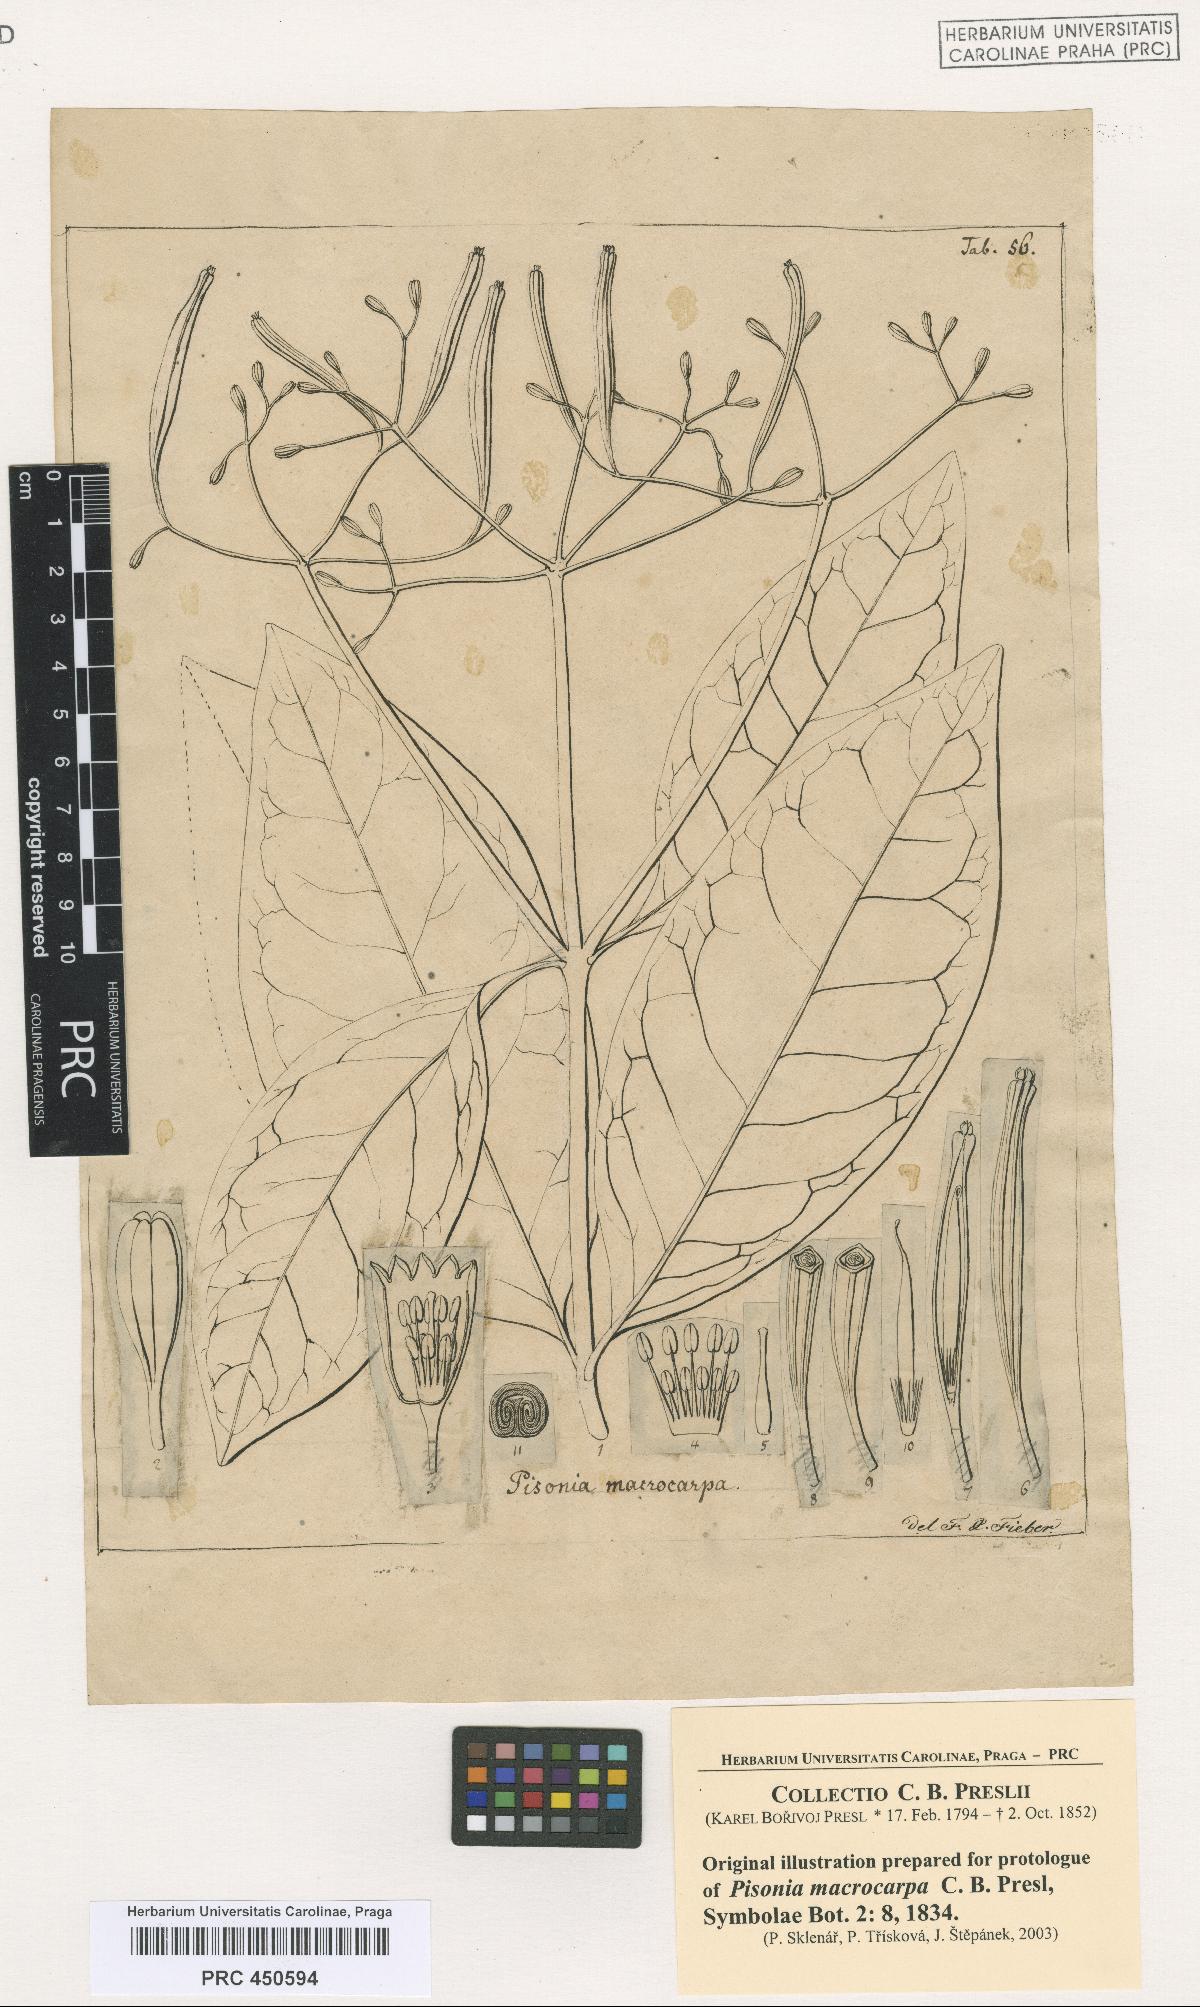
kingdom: Plantae
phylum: Tracheophyta
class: Magnoliopsida
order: Caryophyllales
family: Nyctaginaceae
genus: Ceodes
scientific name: Ceodes umbellifera
